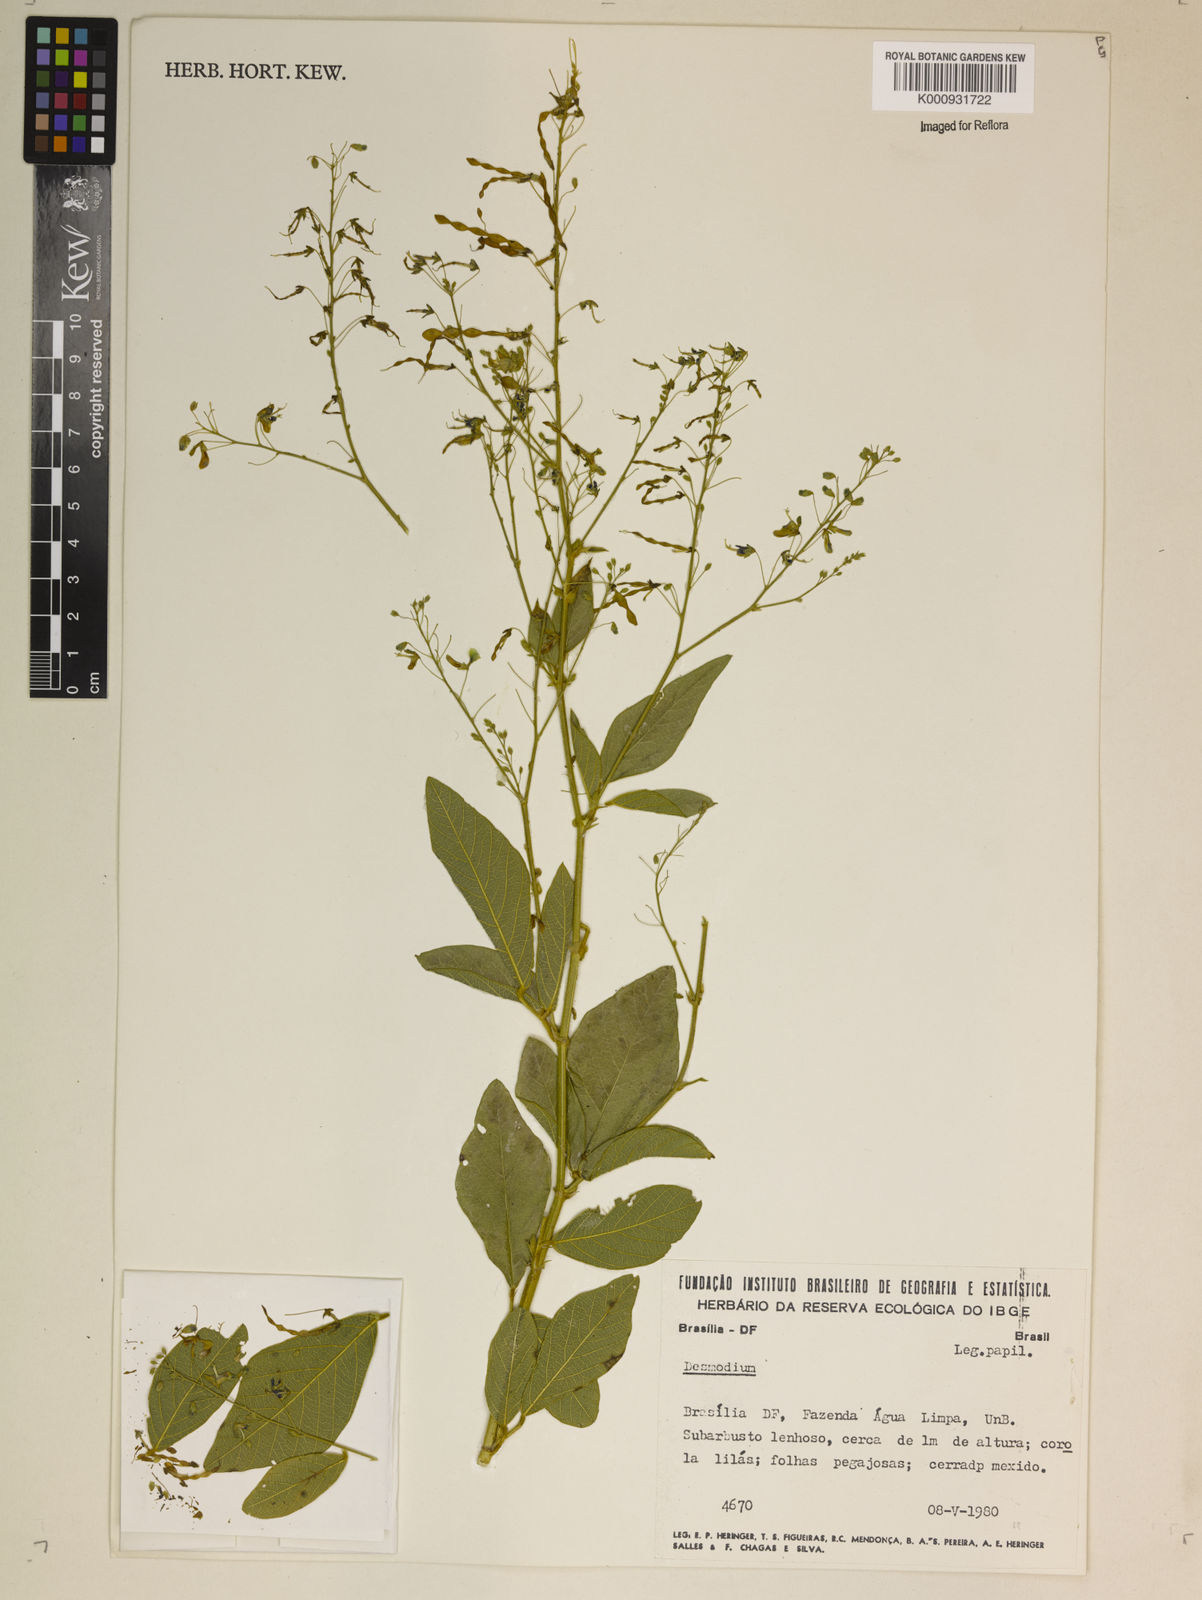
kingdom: Plantae
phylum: Tracheophyta
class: Magnoliopsida
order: Fabales
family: Fabaceae
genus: Desmodium
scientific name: Desmodium
